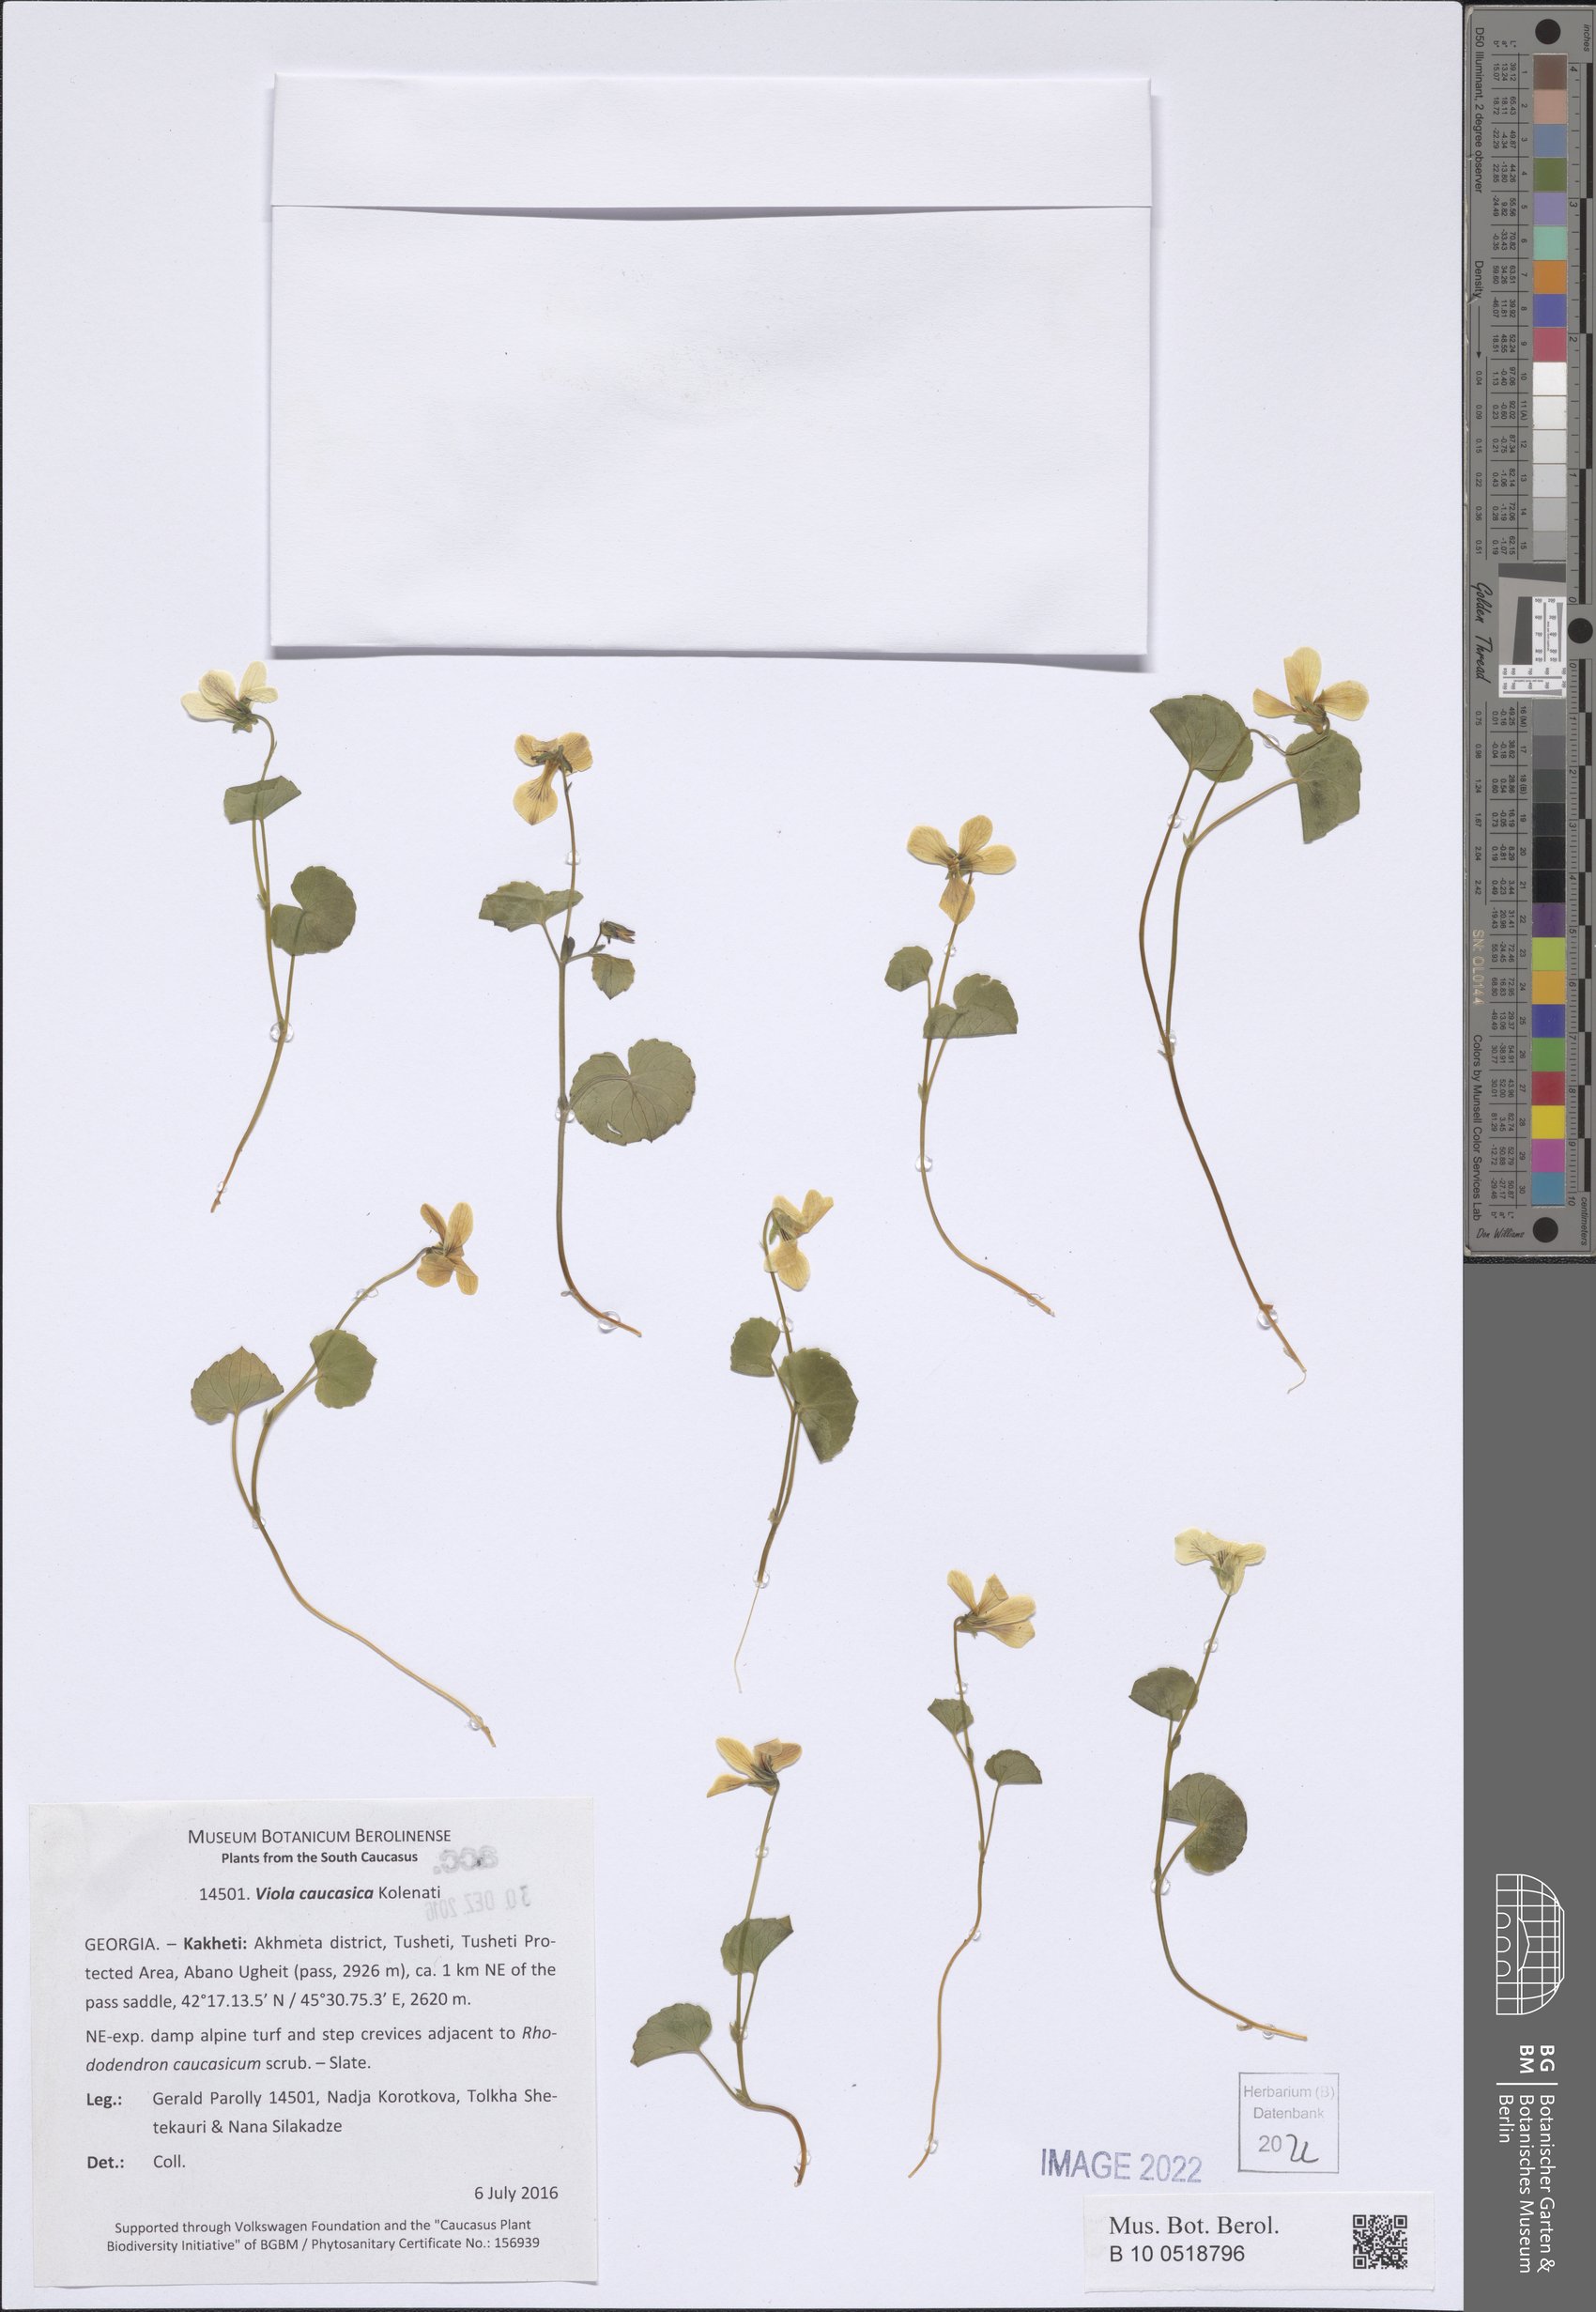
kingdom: Plantae
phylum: Tracheophyta
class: Magnoliopsida
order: Malpighiales
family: Violaceae
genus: Viola
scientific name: Viola caucasica
